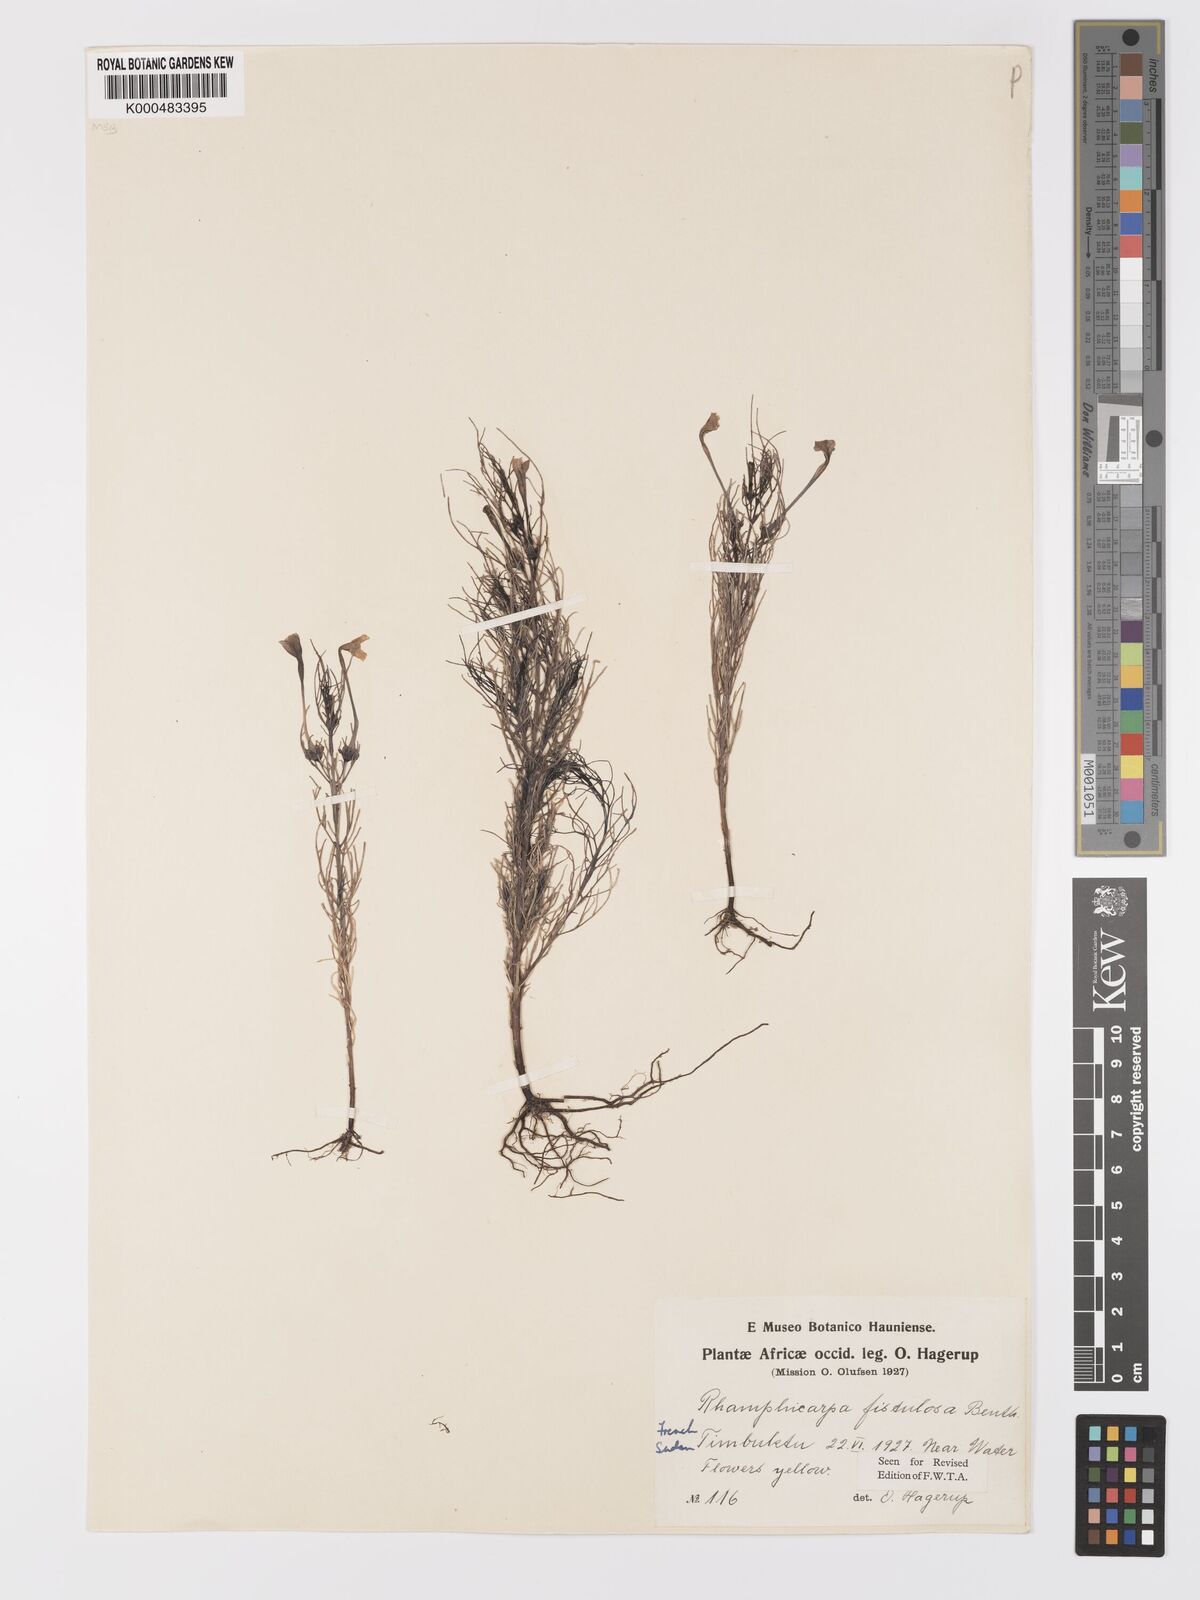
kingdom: Plantae
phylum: Tracheophyta
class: Magnoliopsida
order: Lamiales
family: Orobanchaceae
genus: Rhamphicarpa
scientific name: Rhamphicarpa fistulosa
